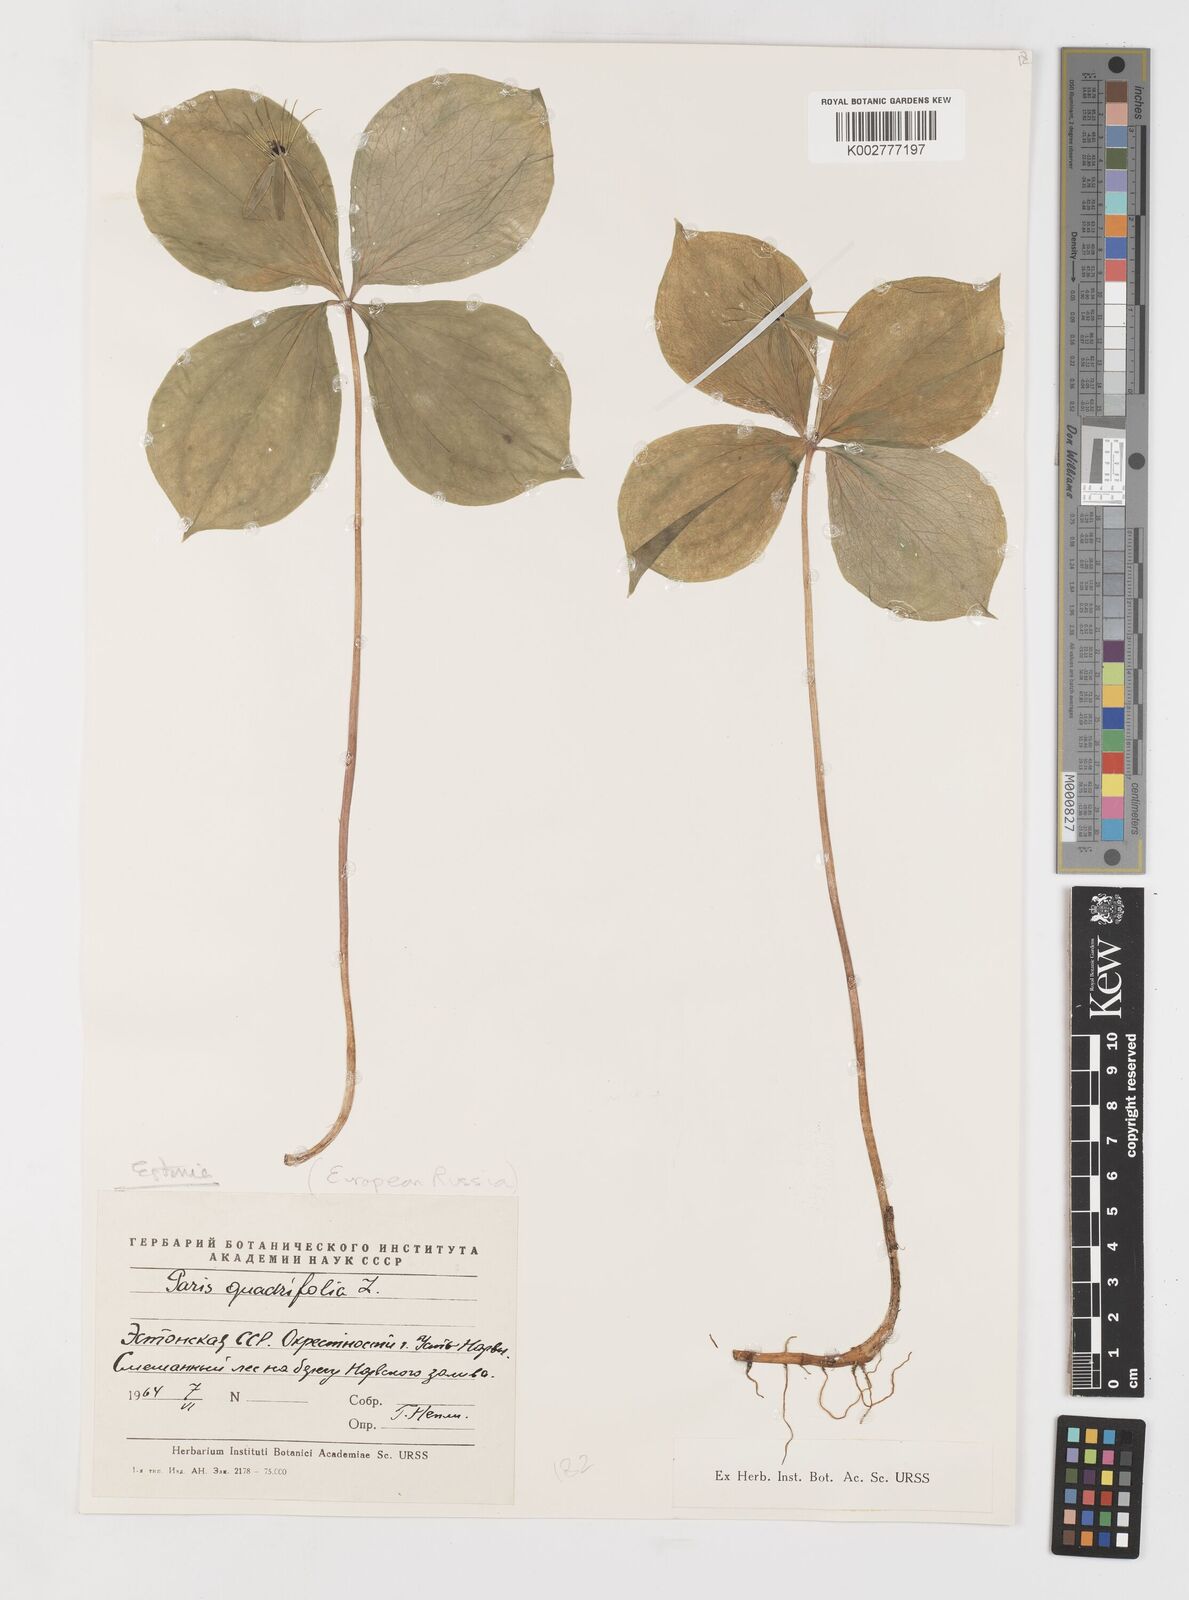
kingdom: Plantae
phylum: Tracheophyta
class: Liliopsida
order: Liliales
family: Melanthiaceae
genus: Paris
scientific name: Paris quadrifolia
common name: Herb-paris
